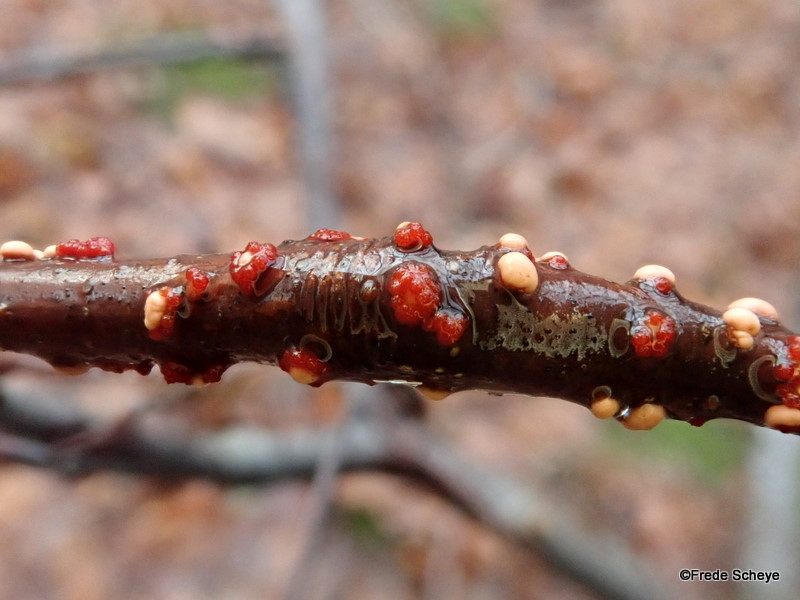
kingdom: Fungi
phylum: Ascomycota
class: Sordariomycetes
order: Hypocreales
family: Nectriaceae
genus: Nectria
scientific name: Nectria cinnabarina
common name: almindelig cinnobersvamp
